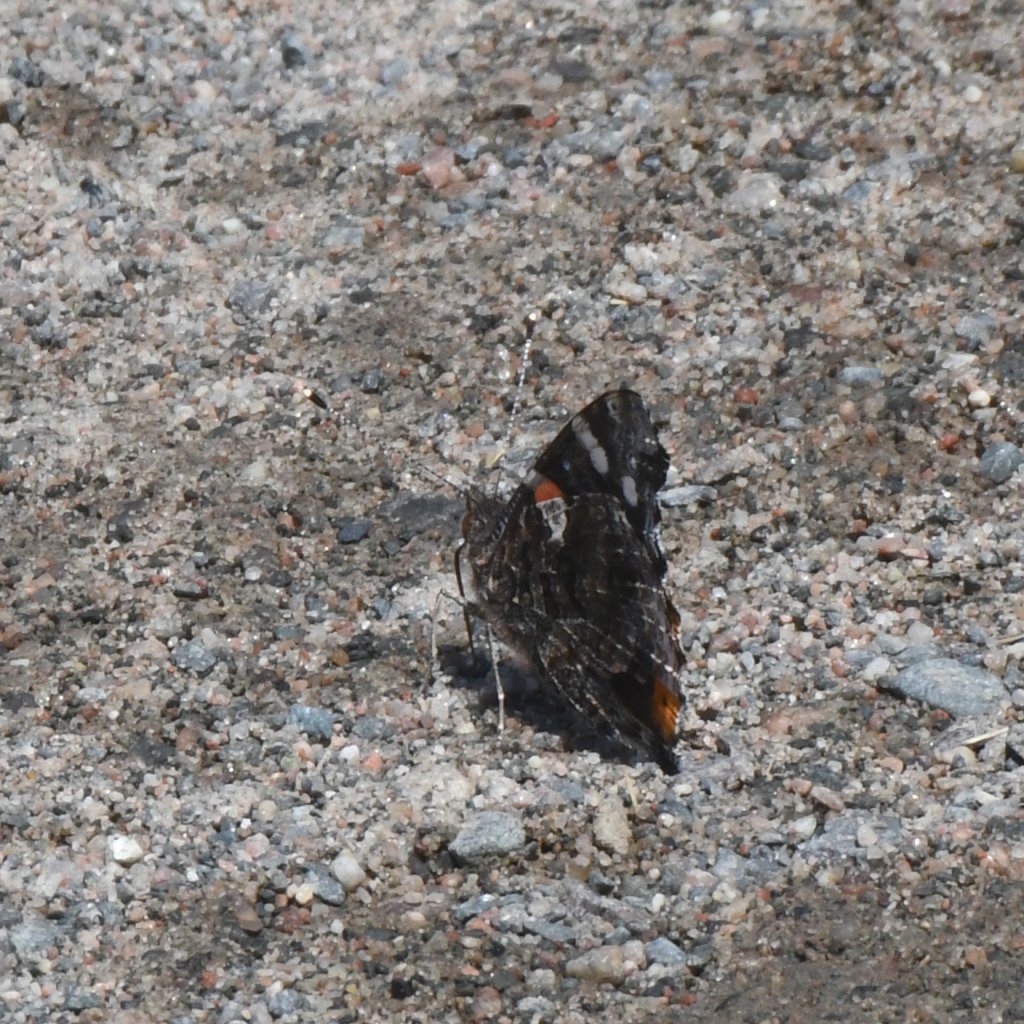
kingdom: Animalia
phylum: Arthropoda
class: Insecta
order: Lepidoptera
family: Nymphalidae
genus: Vanessa
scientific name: Vanessa atalanta
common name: Red Admiral
